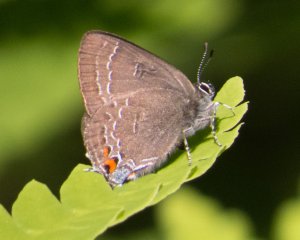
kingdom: Animalia
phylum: Arthropoda
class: Insecta
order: Lepidoptera
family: Lycaenidae
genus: Satyrium
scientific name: Satyrium calanus
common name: Banded Hairstreak
